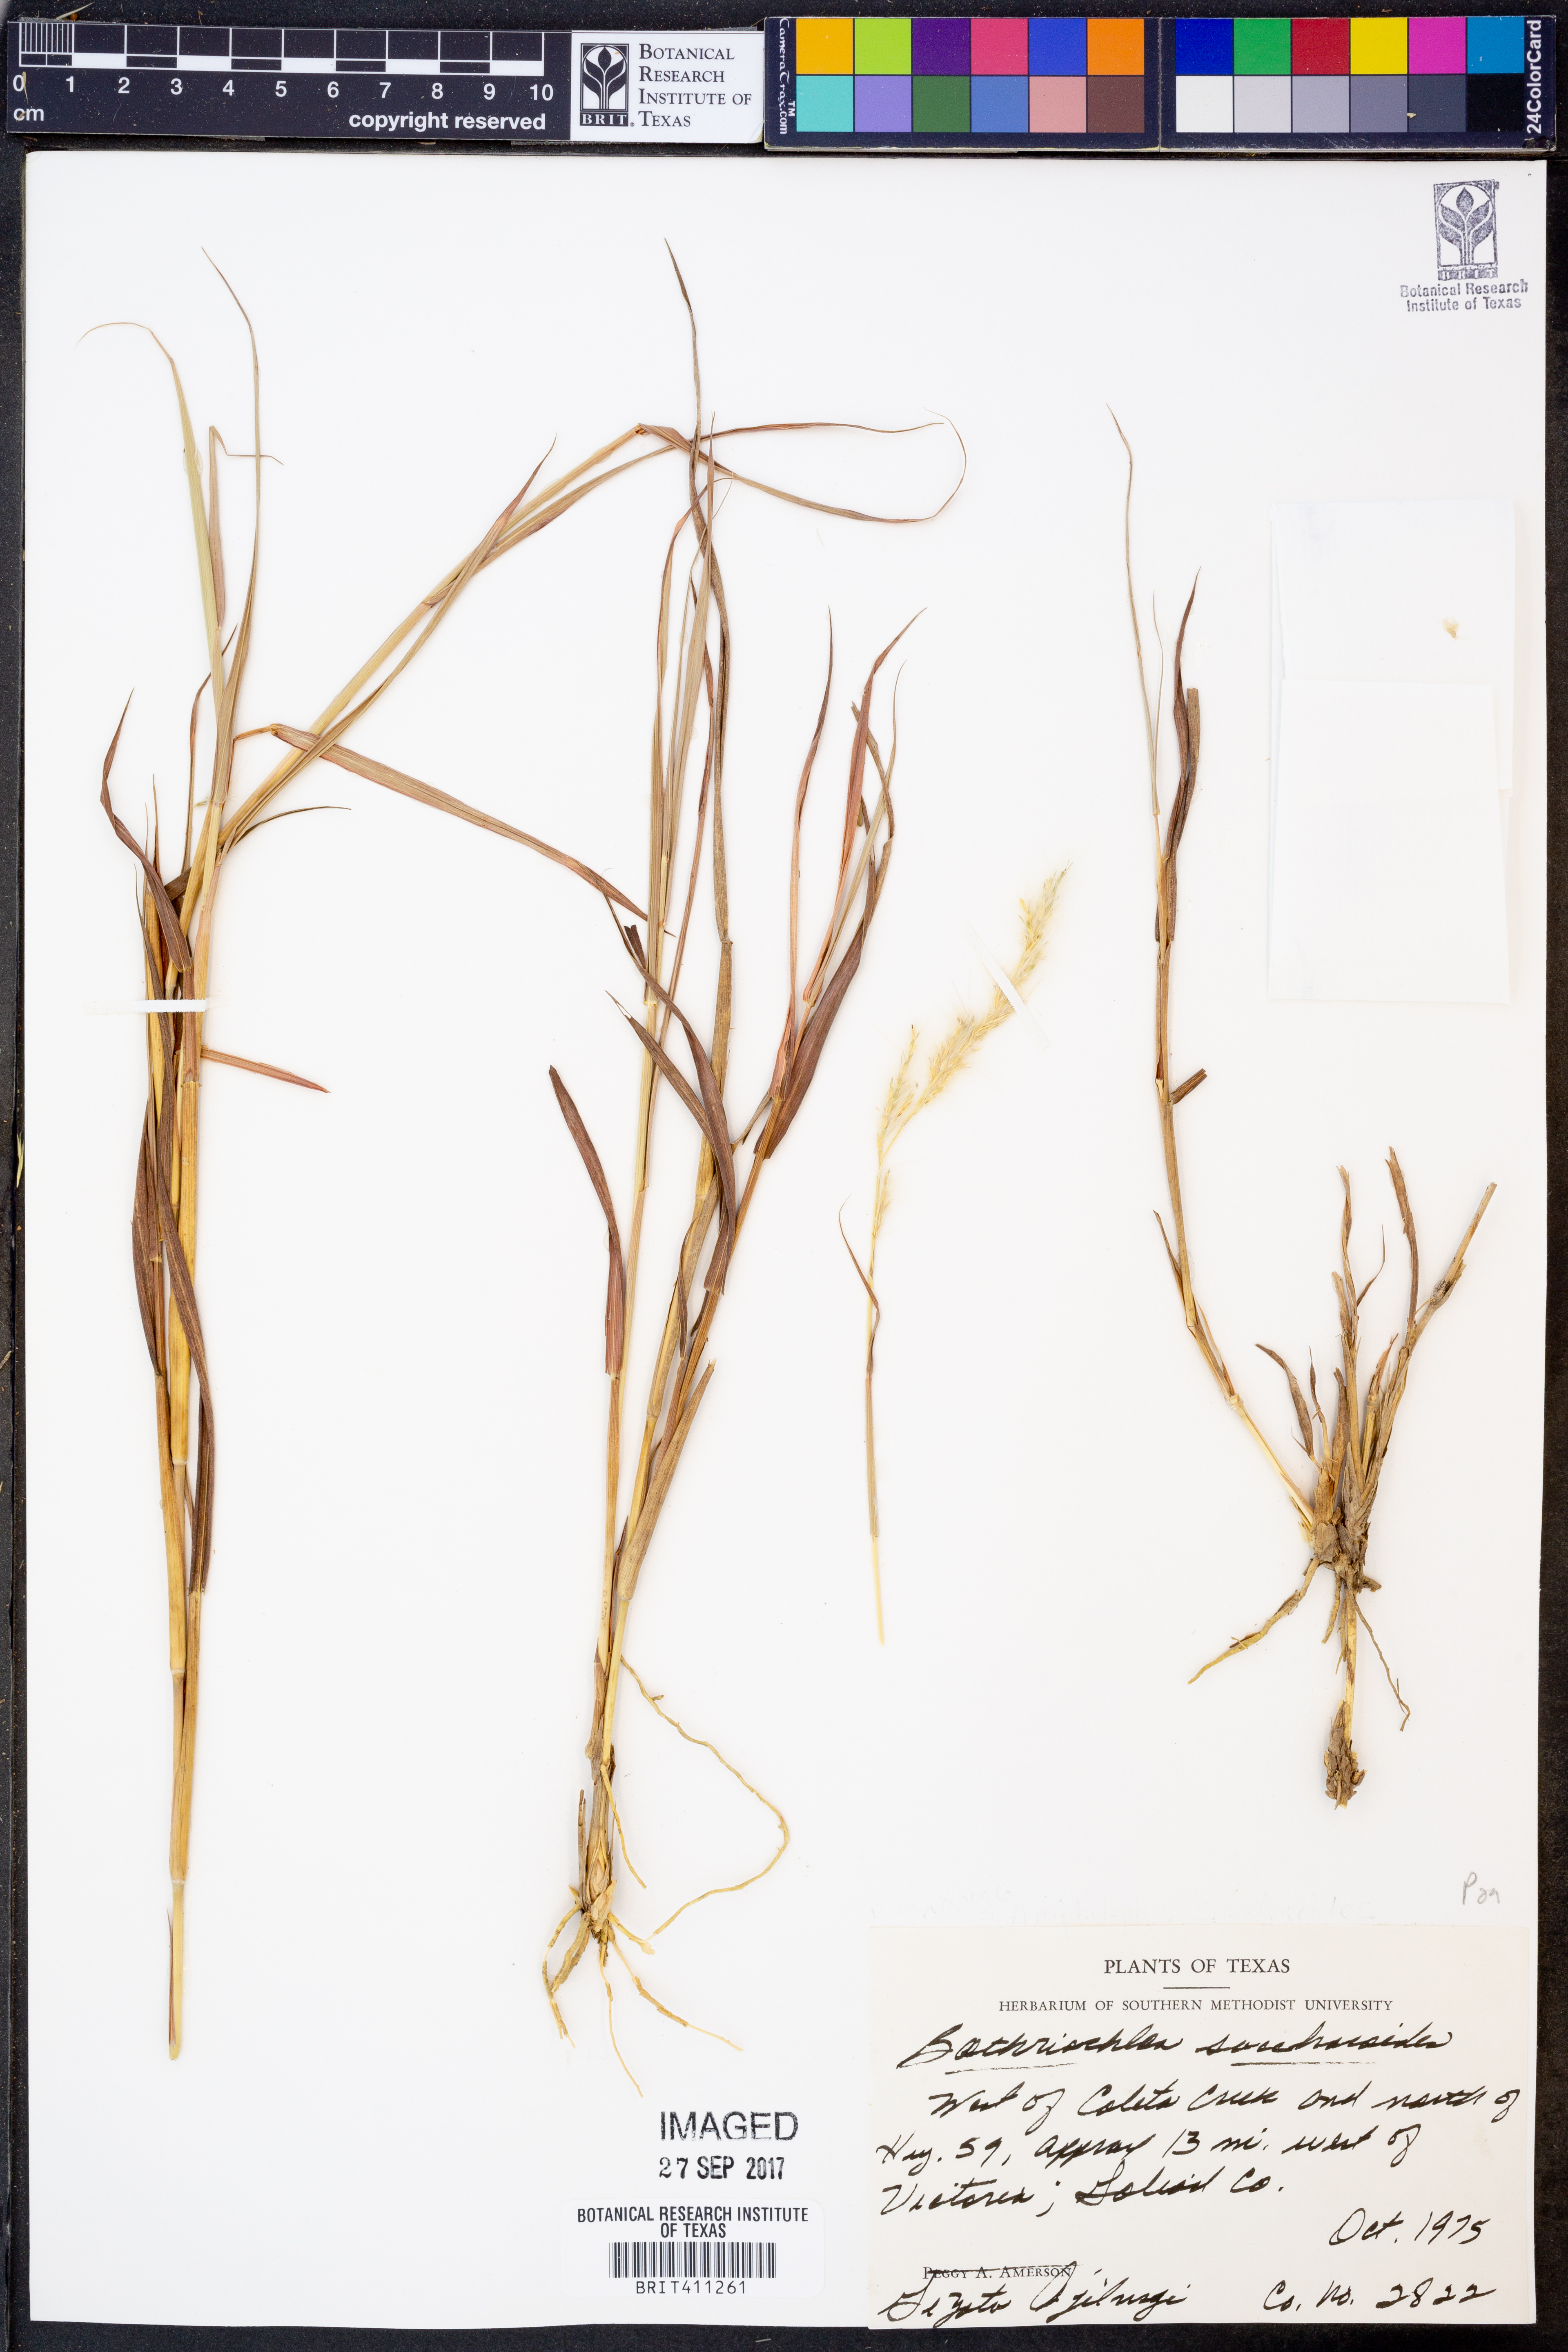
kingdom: Plantae
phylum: Tracheophyta
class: Liliopsida
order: Poales
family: Poaceae
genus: Bothriochloa
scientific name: Bothriochloa saccharoides
